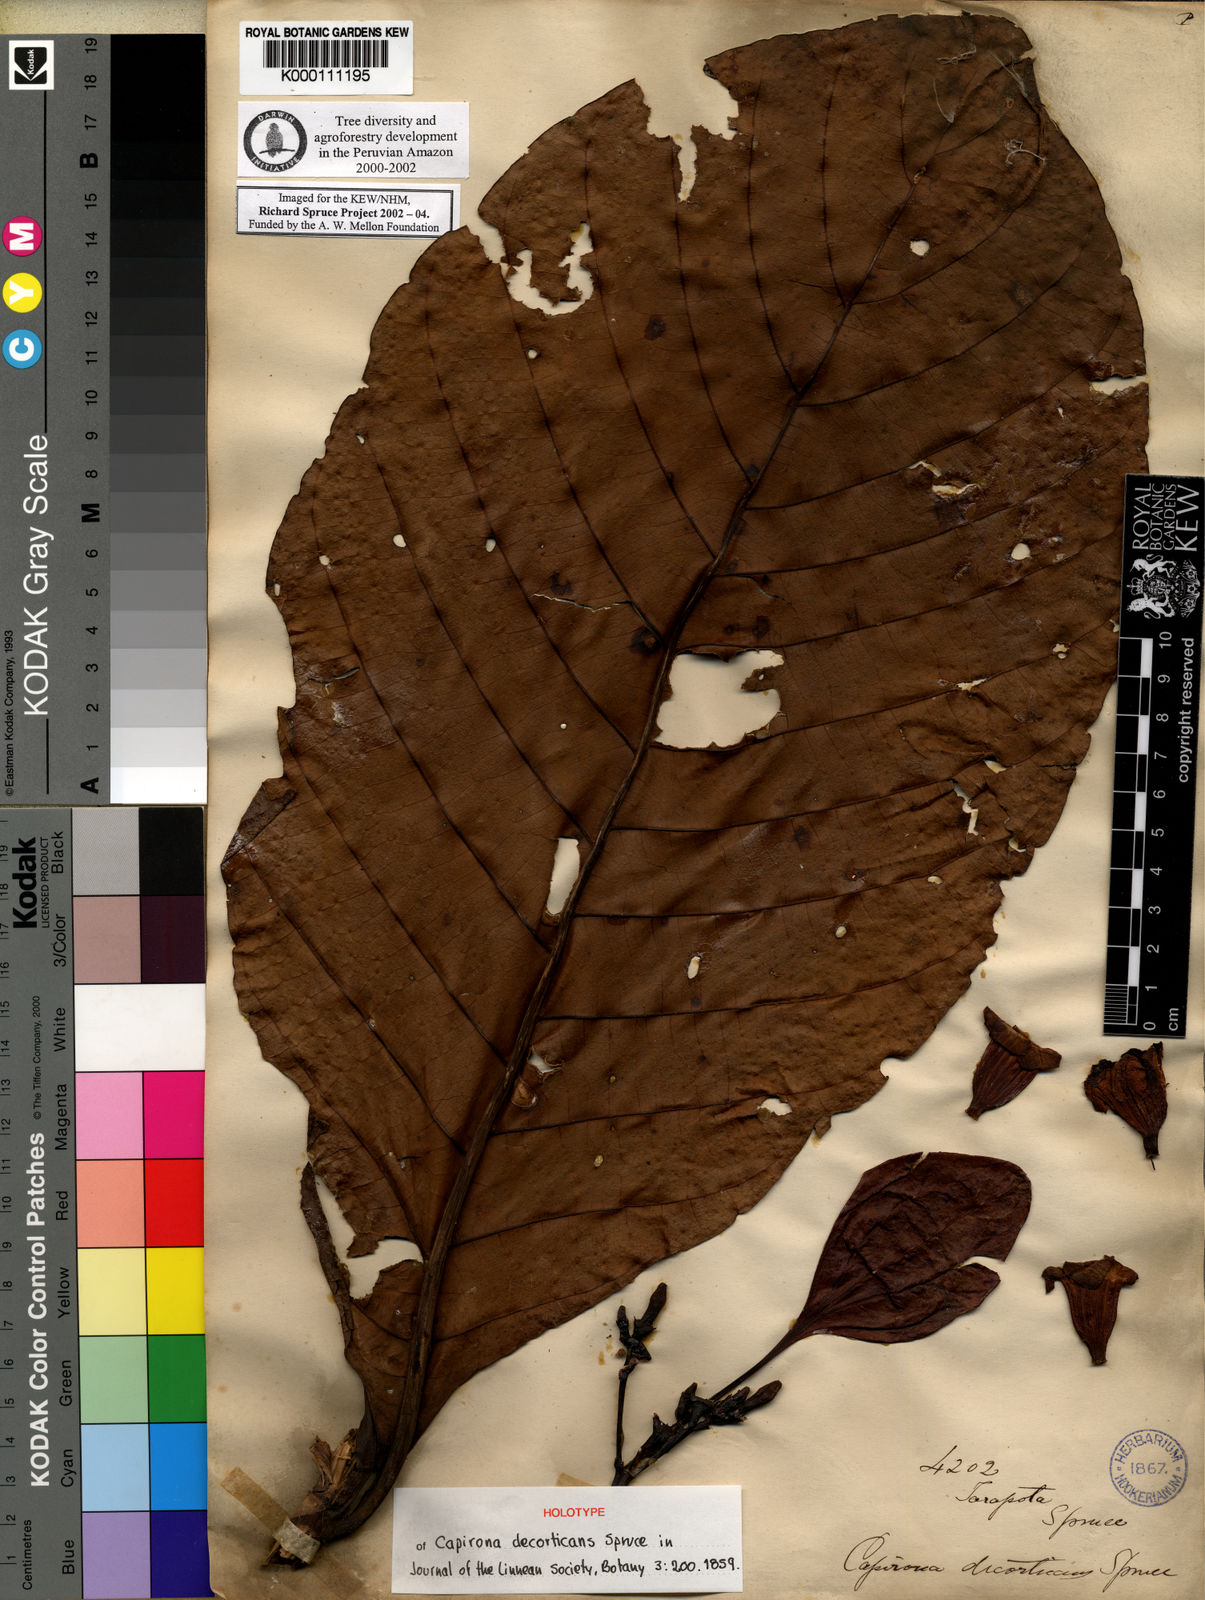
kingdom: Plantae
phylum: Tracheophyta
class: Magnoliopsida
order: Gentianales
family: Rubiaceae
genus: Capirona
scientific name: Capirona macrophylla
